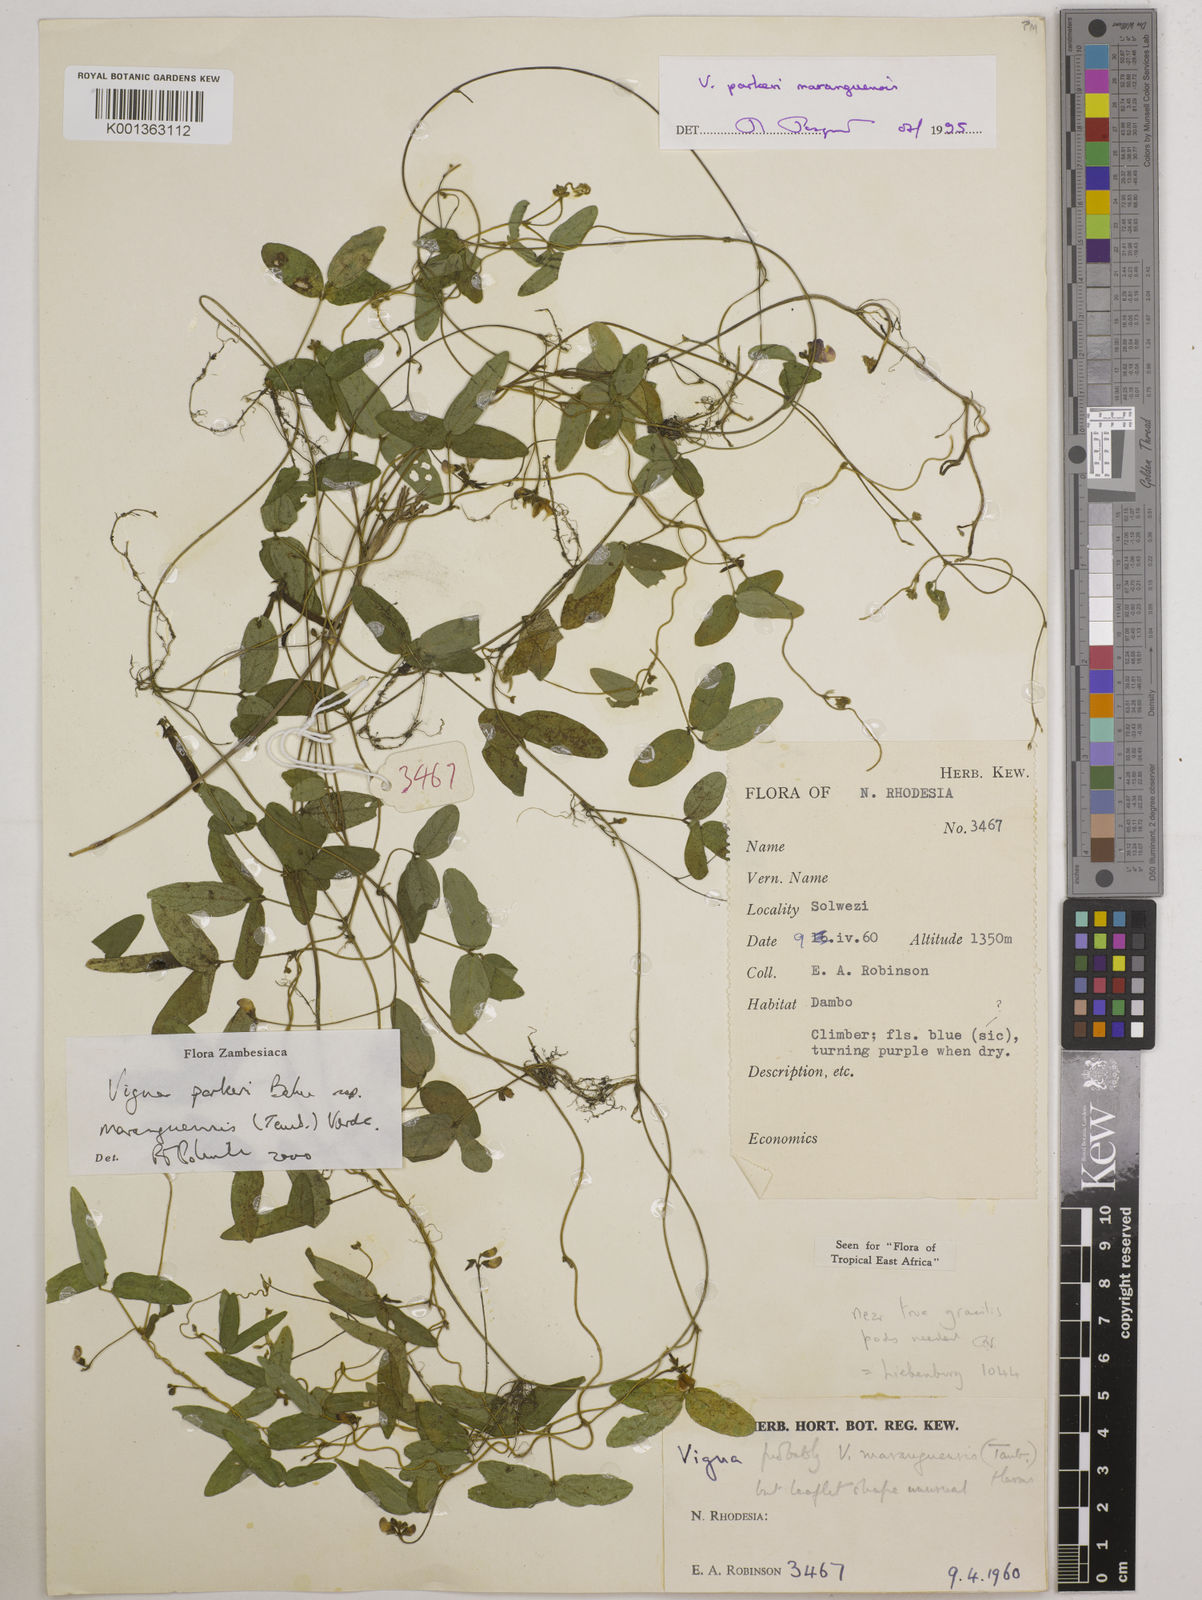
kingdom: Plantae
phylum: Tracheophyta
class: Magnoliopsida
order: Fabales
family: Fabaceae
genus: Vigna
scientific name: Vigna
